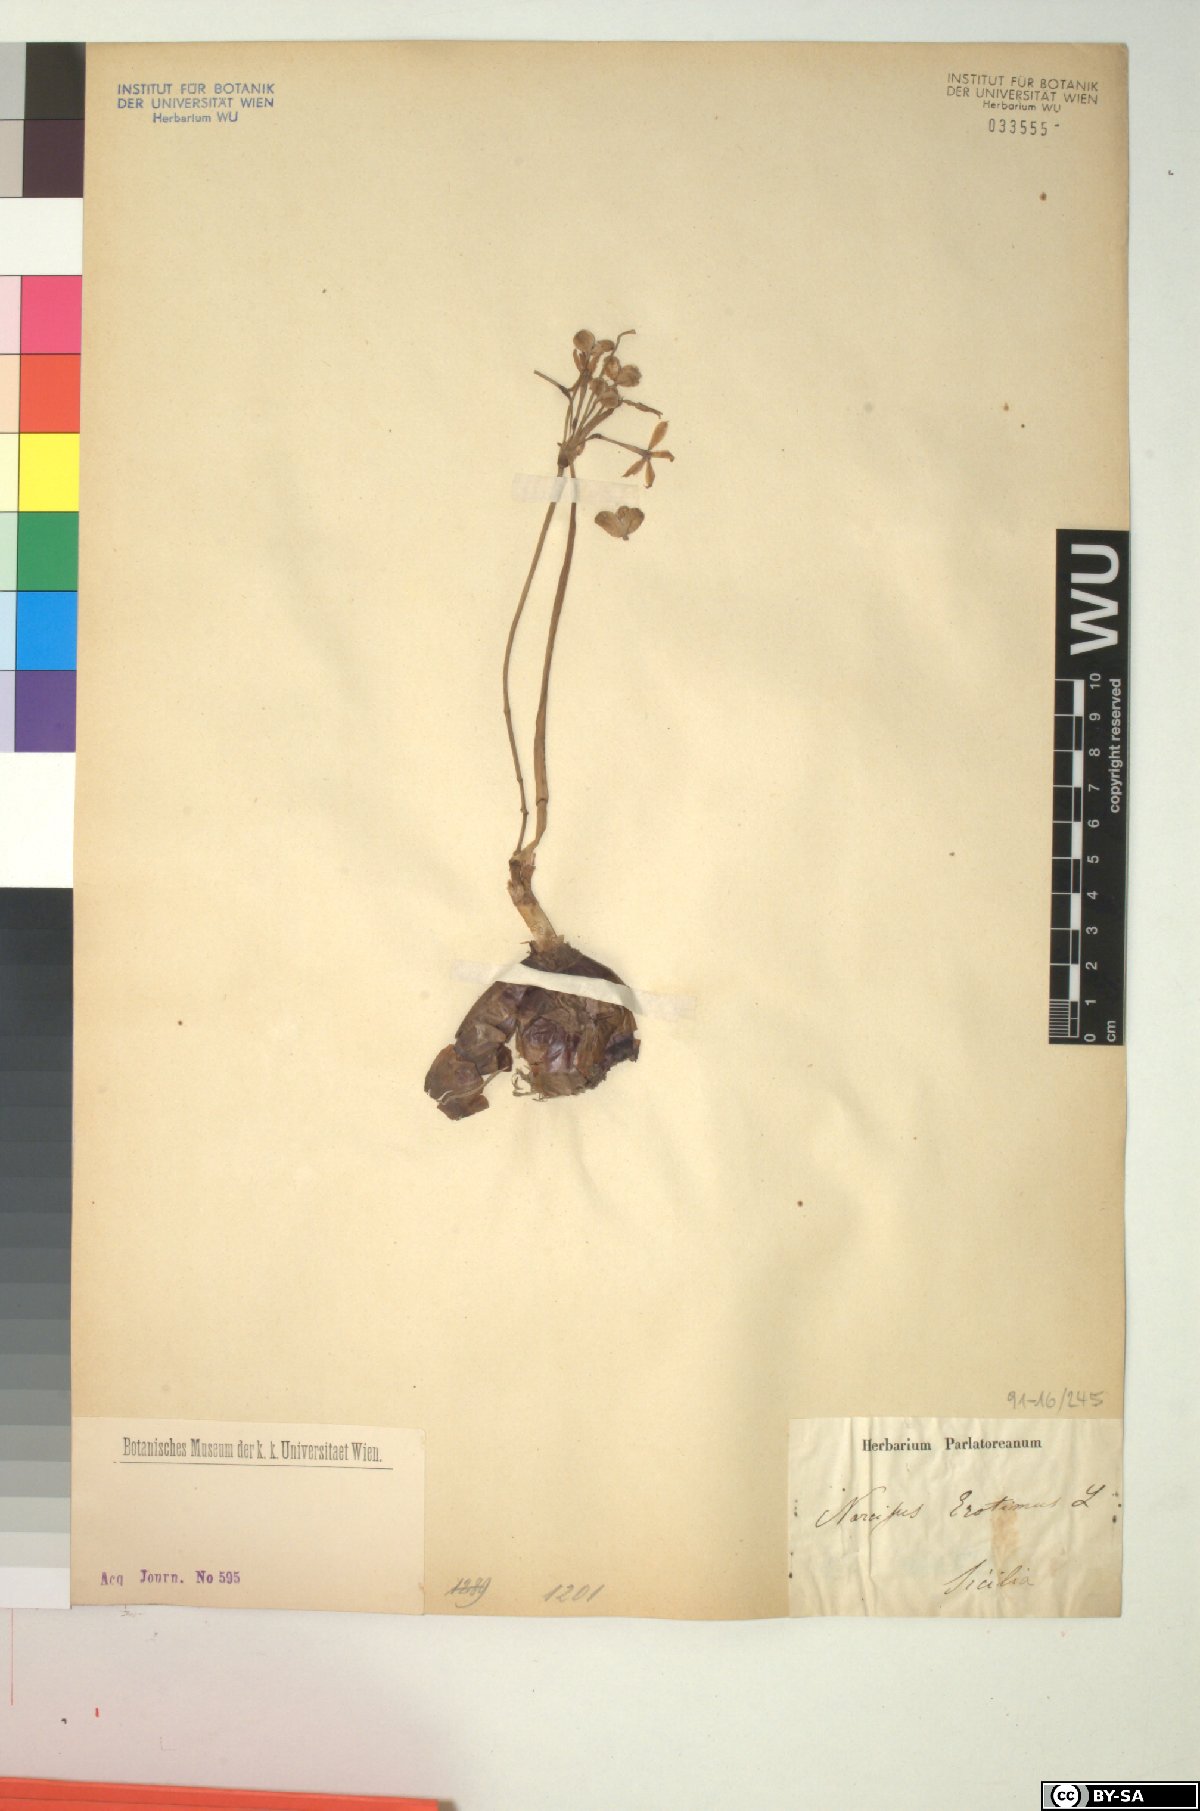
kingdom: Plantae
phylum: Tracheophyta
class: Liliopsida
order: Asparagales
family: Amaryllidaceae
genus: Narcissus
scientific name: Narcissus serotinus
